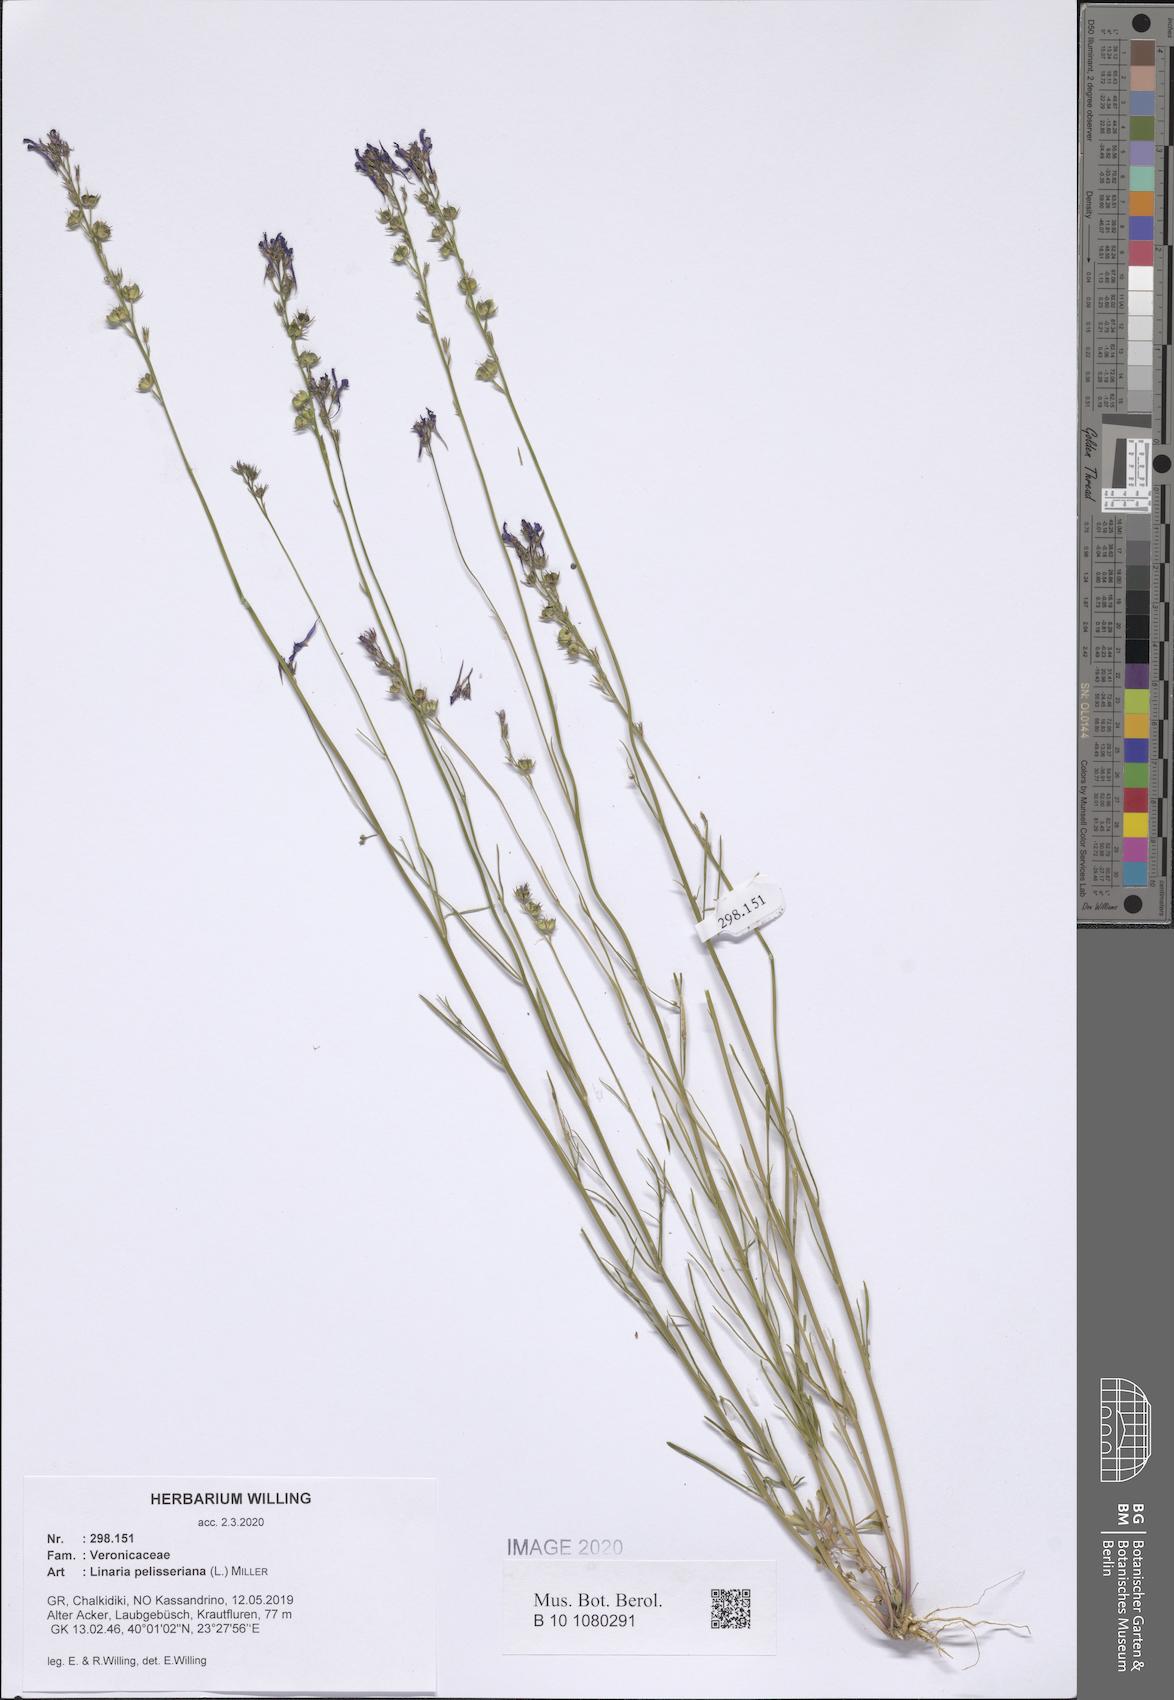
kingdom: Plantae
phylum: Tracheophyta
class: Magnoliopsida
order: Lamiales
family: Plantaginaceae
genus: Linaria
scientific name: Linaria pelisseriana
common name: Jersey toadflax
